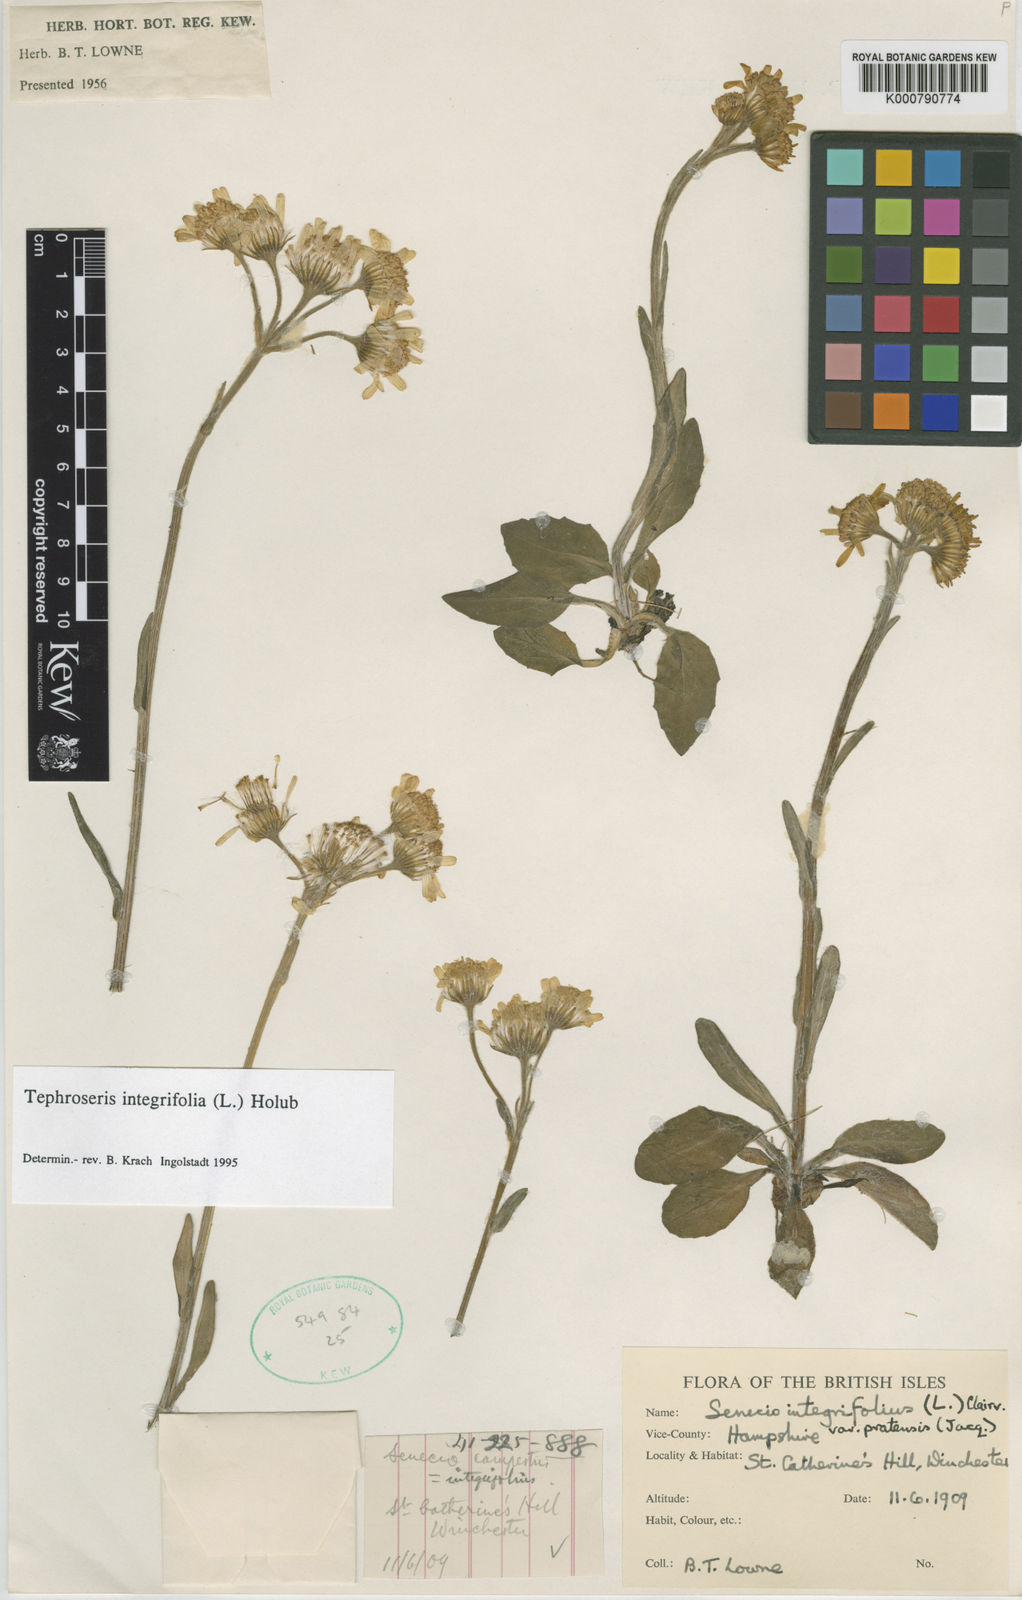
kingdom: Plantae
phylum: Tracheophyta
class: Magnoliopsida
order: Asterales
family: Asteraceae
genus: Tephroseris
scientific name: Tephroseris integrifolia
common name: Field fleawort
